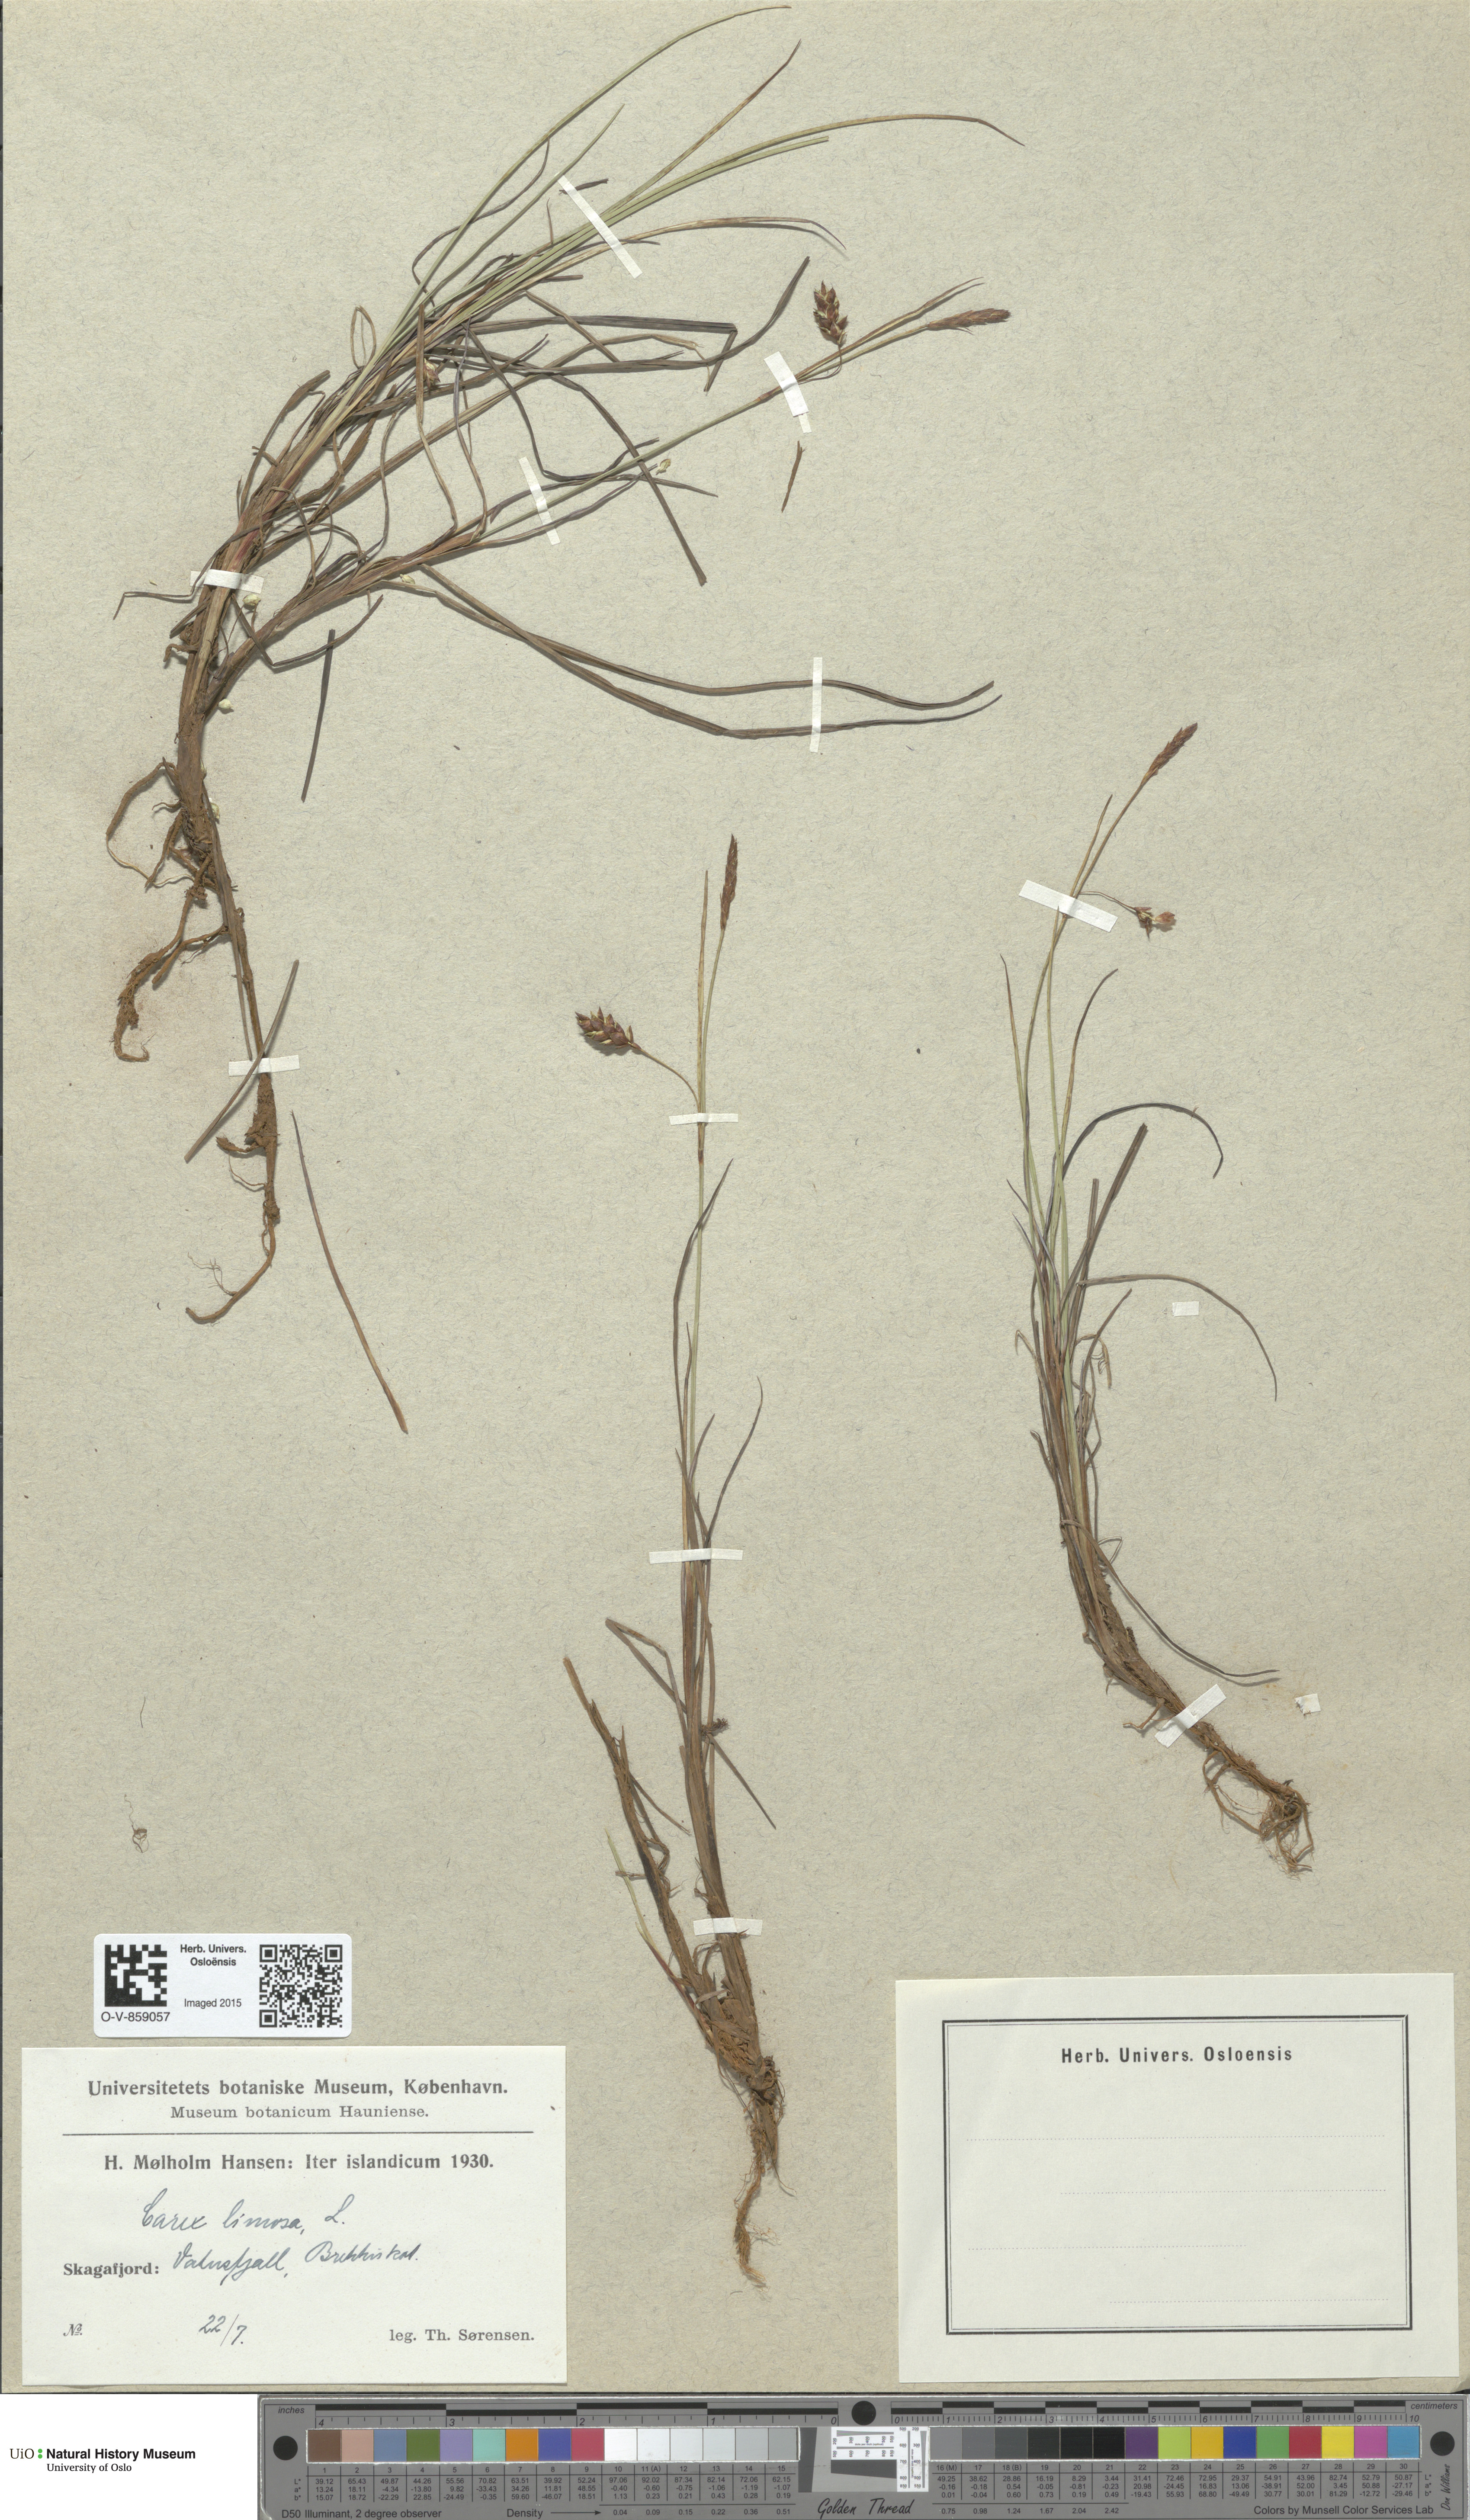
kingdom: Plantae
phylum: Tracheophyta
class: Liliopsida
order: Poales
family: Cyperaceae
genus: Carex
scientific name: Carex limosa
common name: Bog sedge
